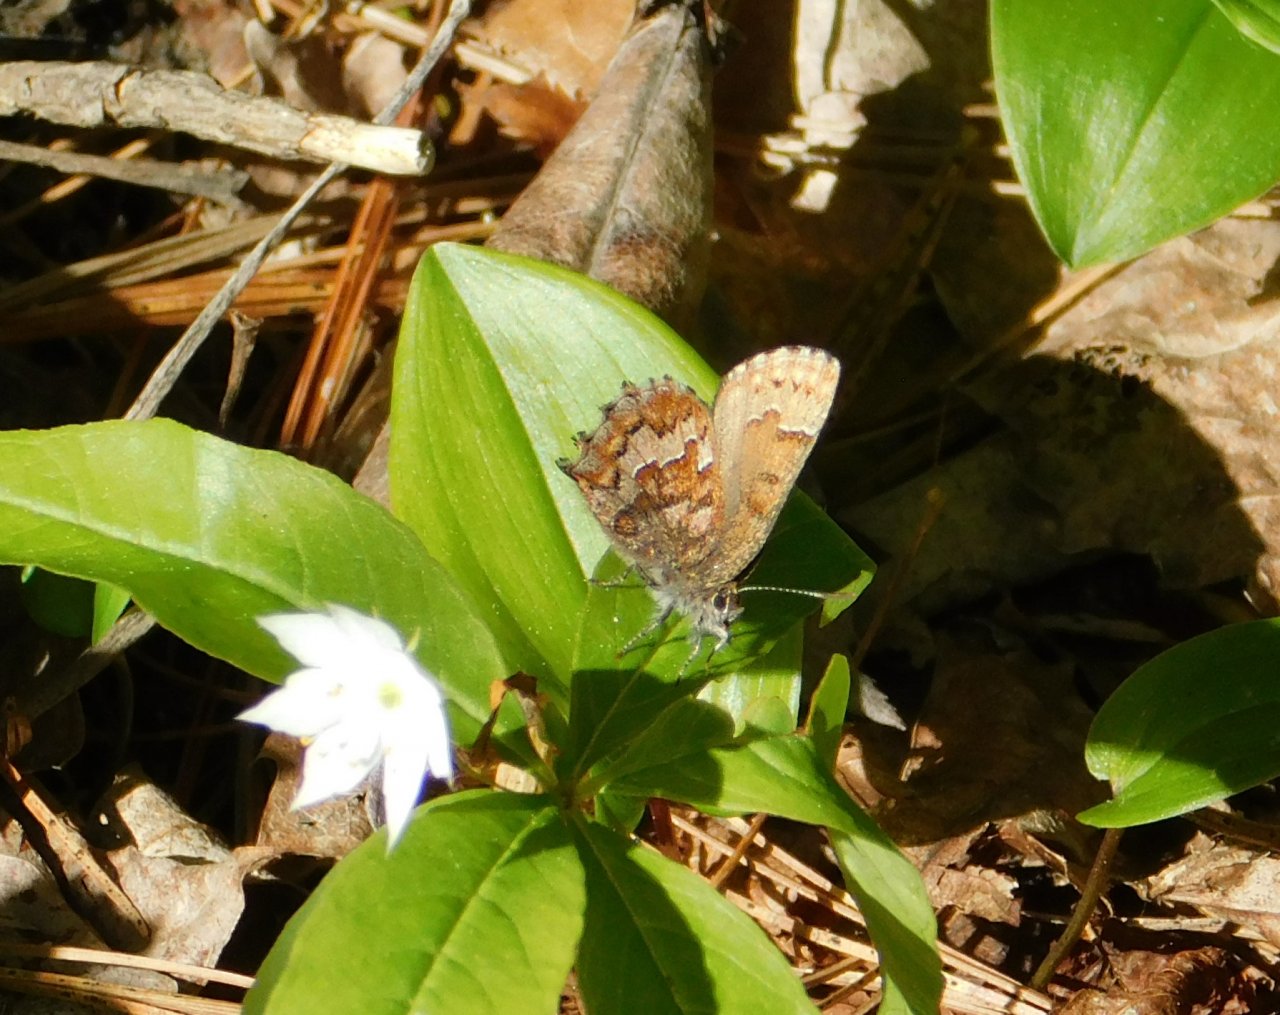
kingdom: Animalia
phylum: Arthropoda
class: Insecta
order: Lepidoptera
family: Lycaenidae
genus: Incisalia
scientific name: Incisalia niphon
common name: Eastern Pine Elfin
